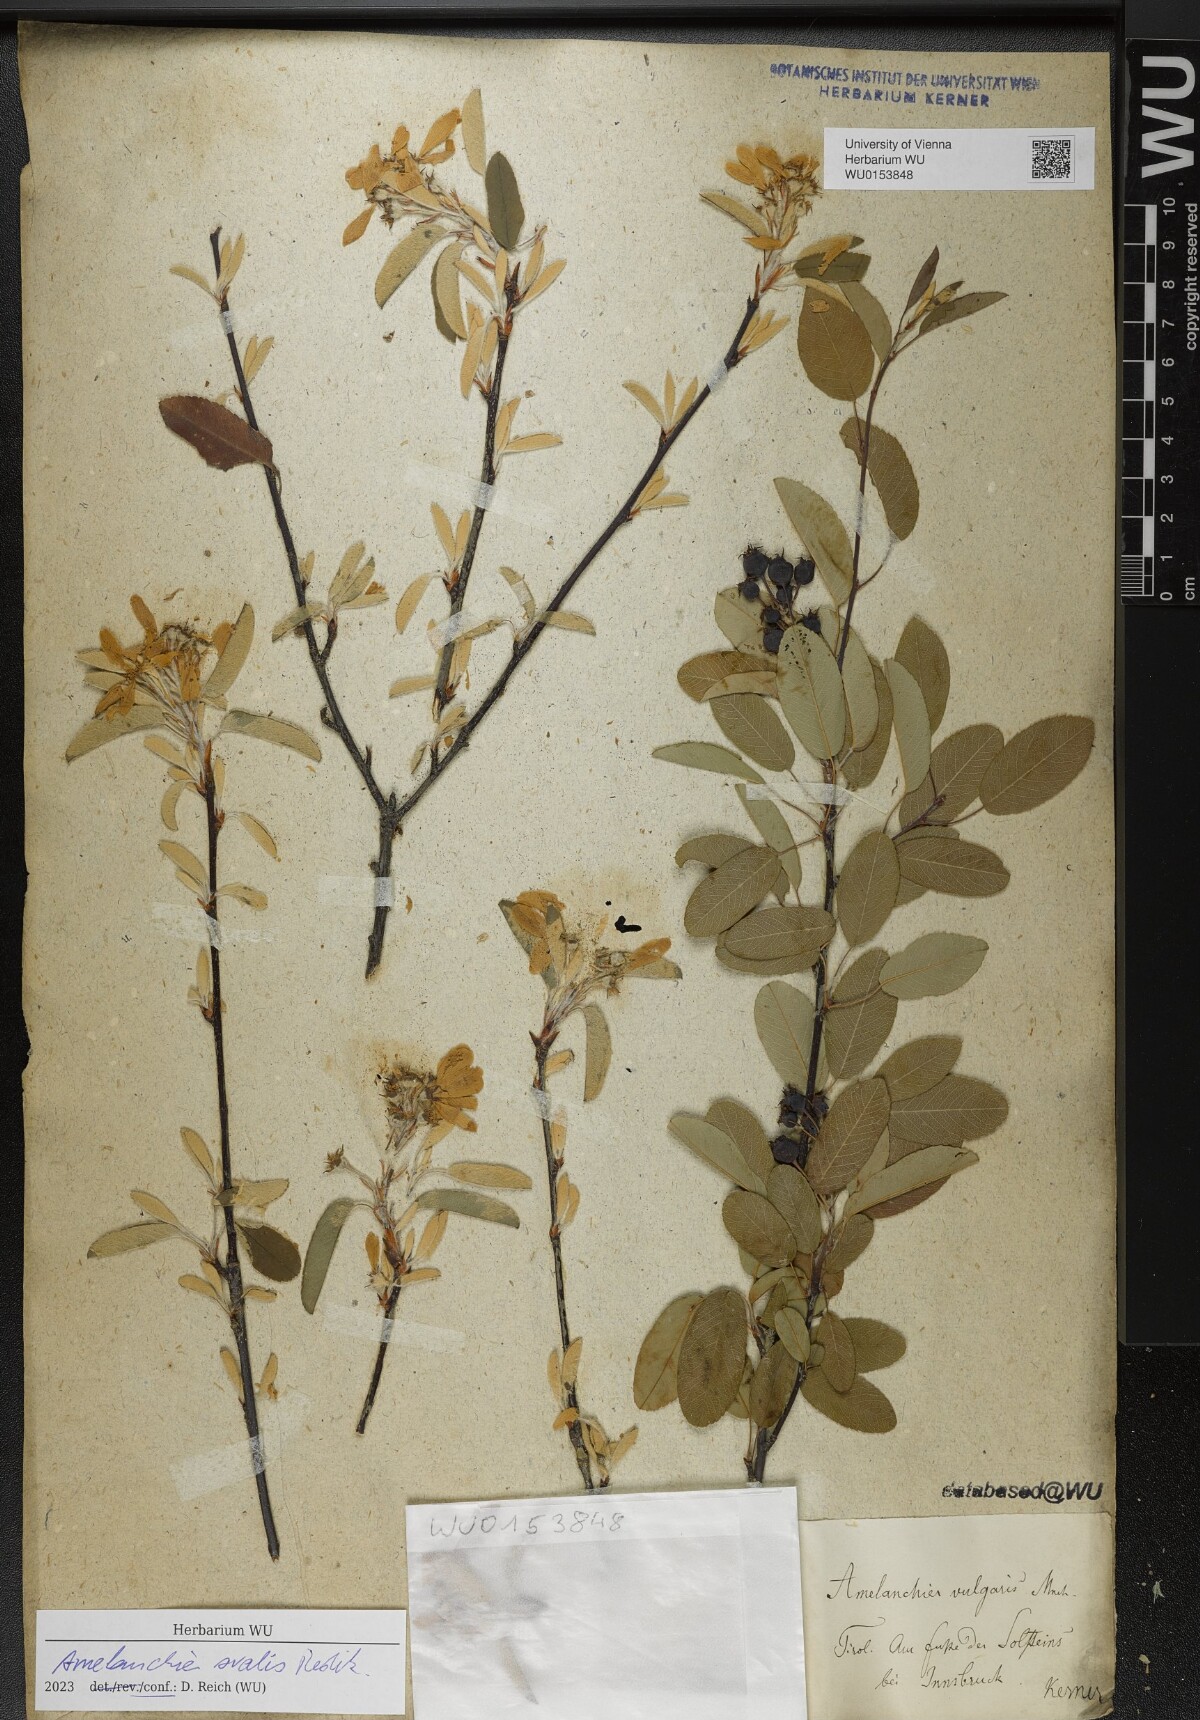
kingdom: Plantae
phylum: Tracheophyta
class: Magnoliopsida
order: Rosales
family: Rosaceae
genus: Amelanchier
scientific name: Amelanchier ovalis
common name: Serviceberry
